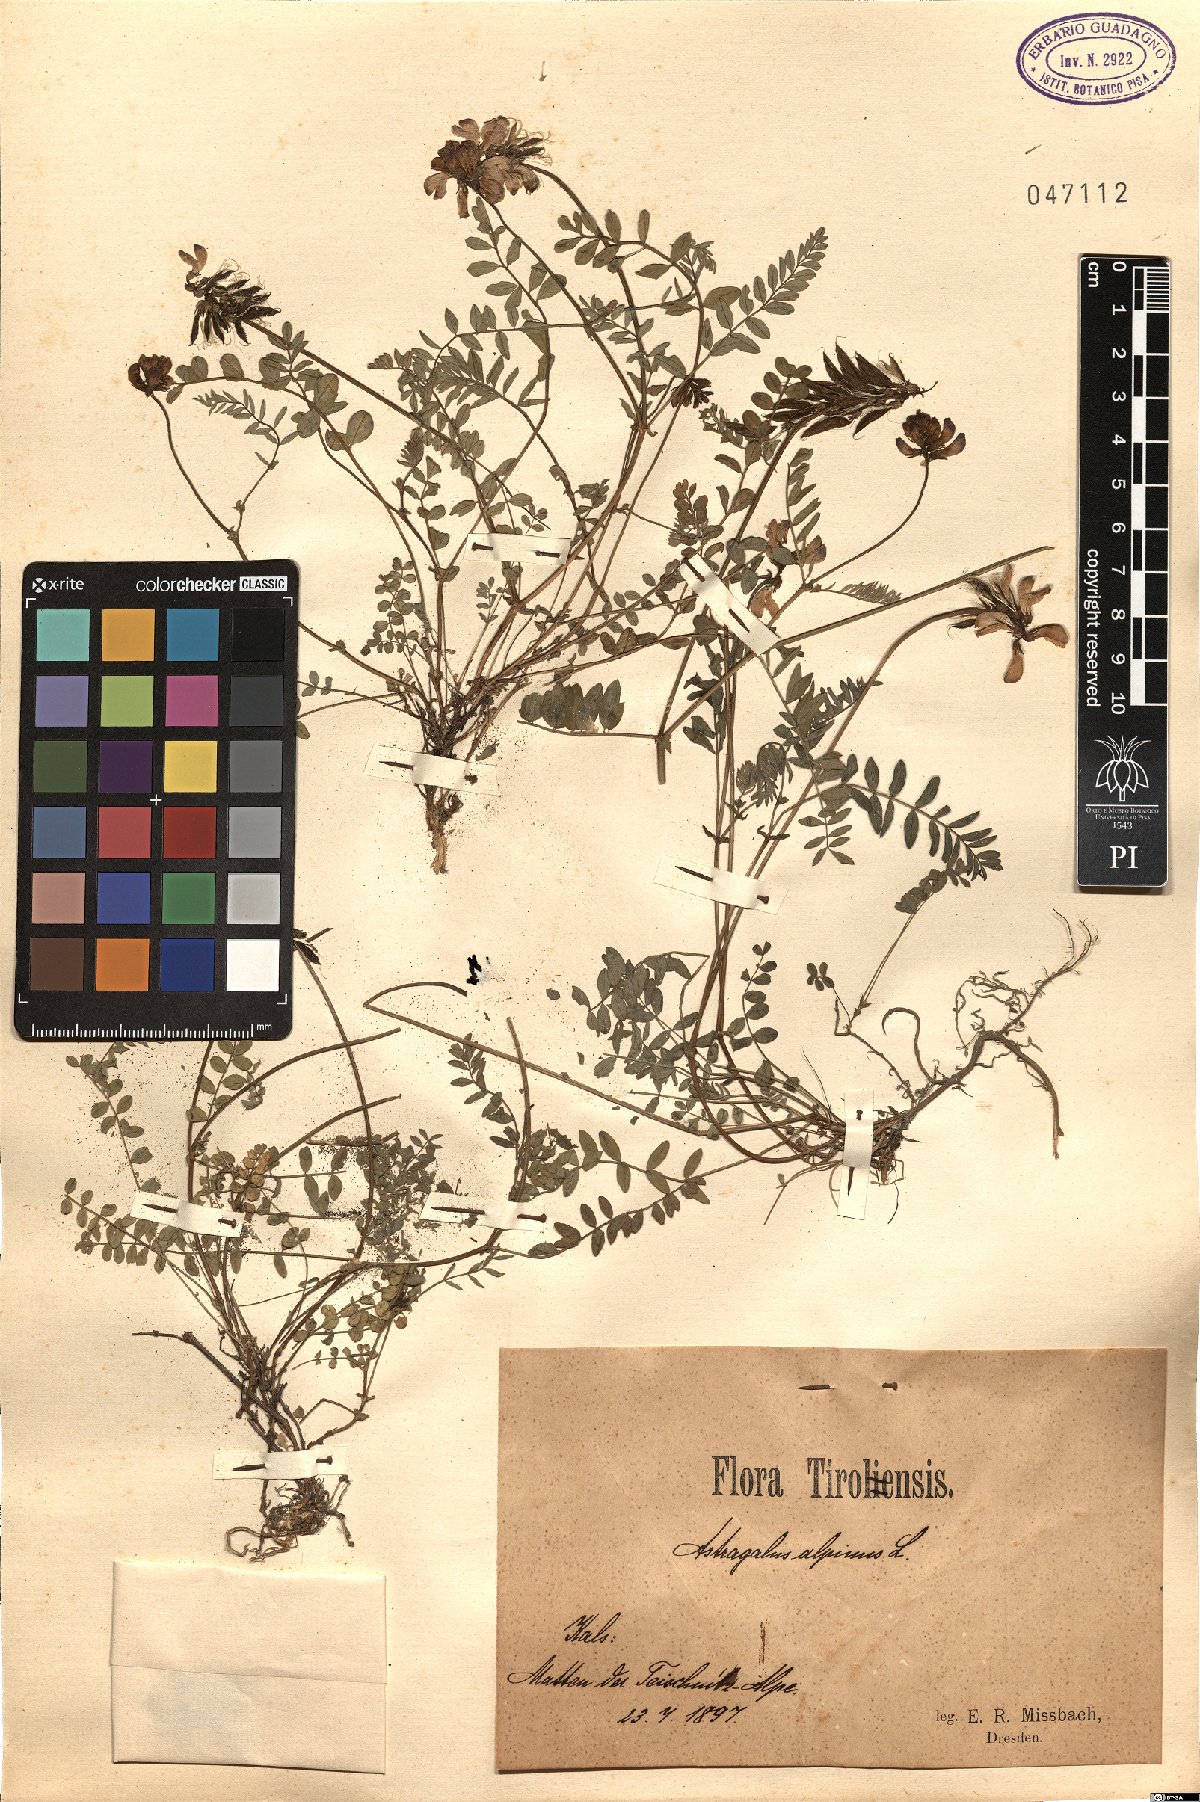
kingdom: Plantae
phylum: Tracheophyta
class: Magnoliopsida
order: Fabales
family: Fabaceae
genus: Astragalus
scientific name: Astragalus alpinus
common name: Alpine milk-vetch
